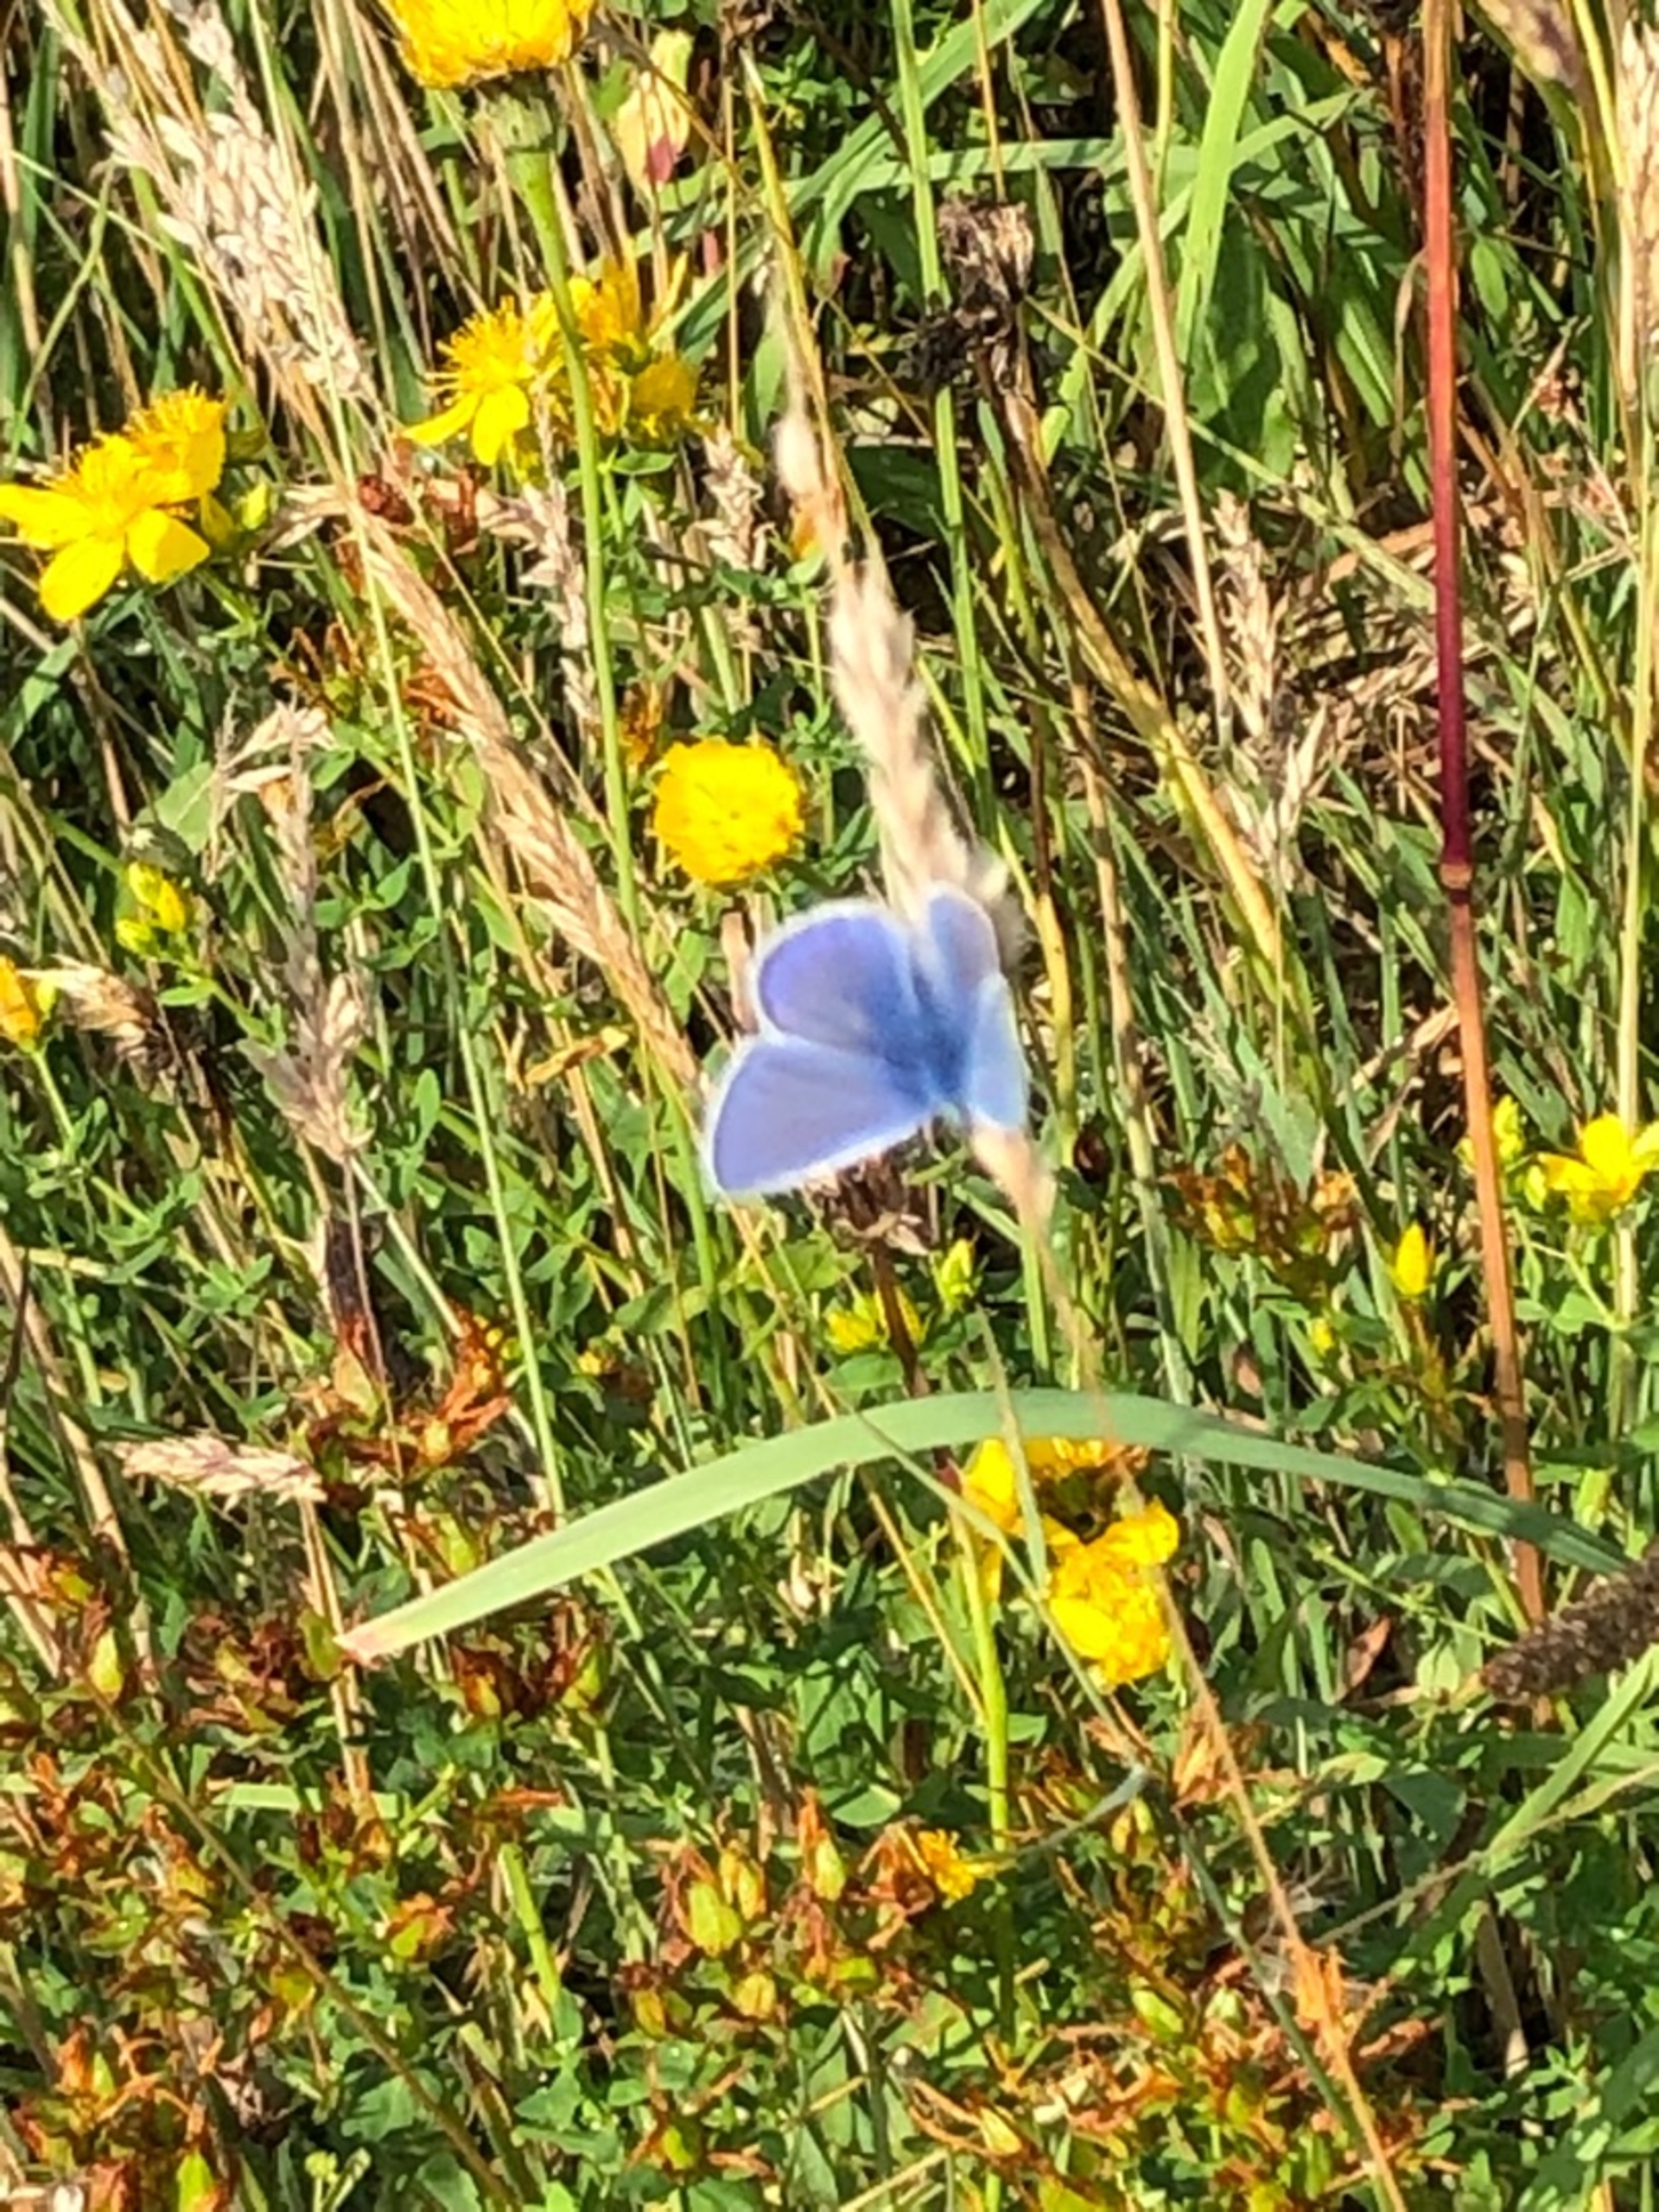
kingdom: Animalia
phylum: Arthropoda
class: Insecta
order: Lepidoptera
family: Lycaenidae
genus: Polyommatus
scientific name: Polyommatus icarus
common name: Almindelig blåfugl
